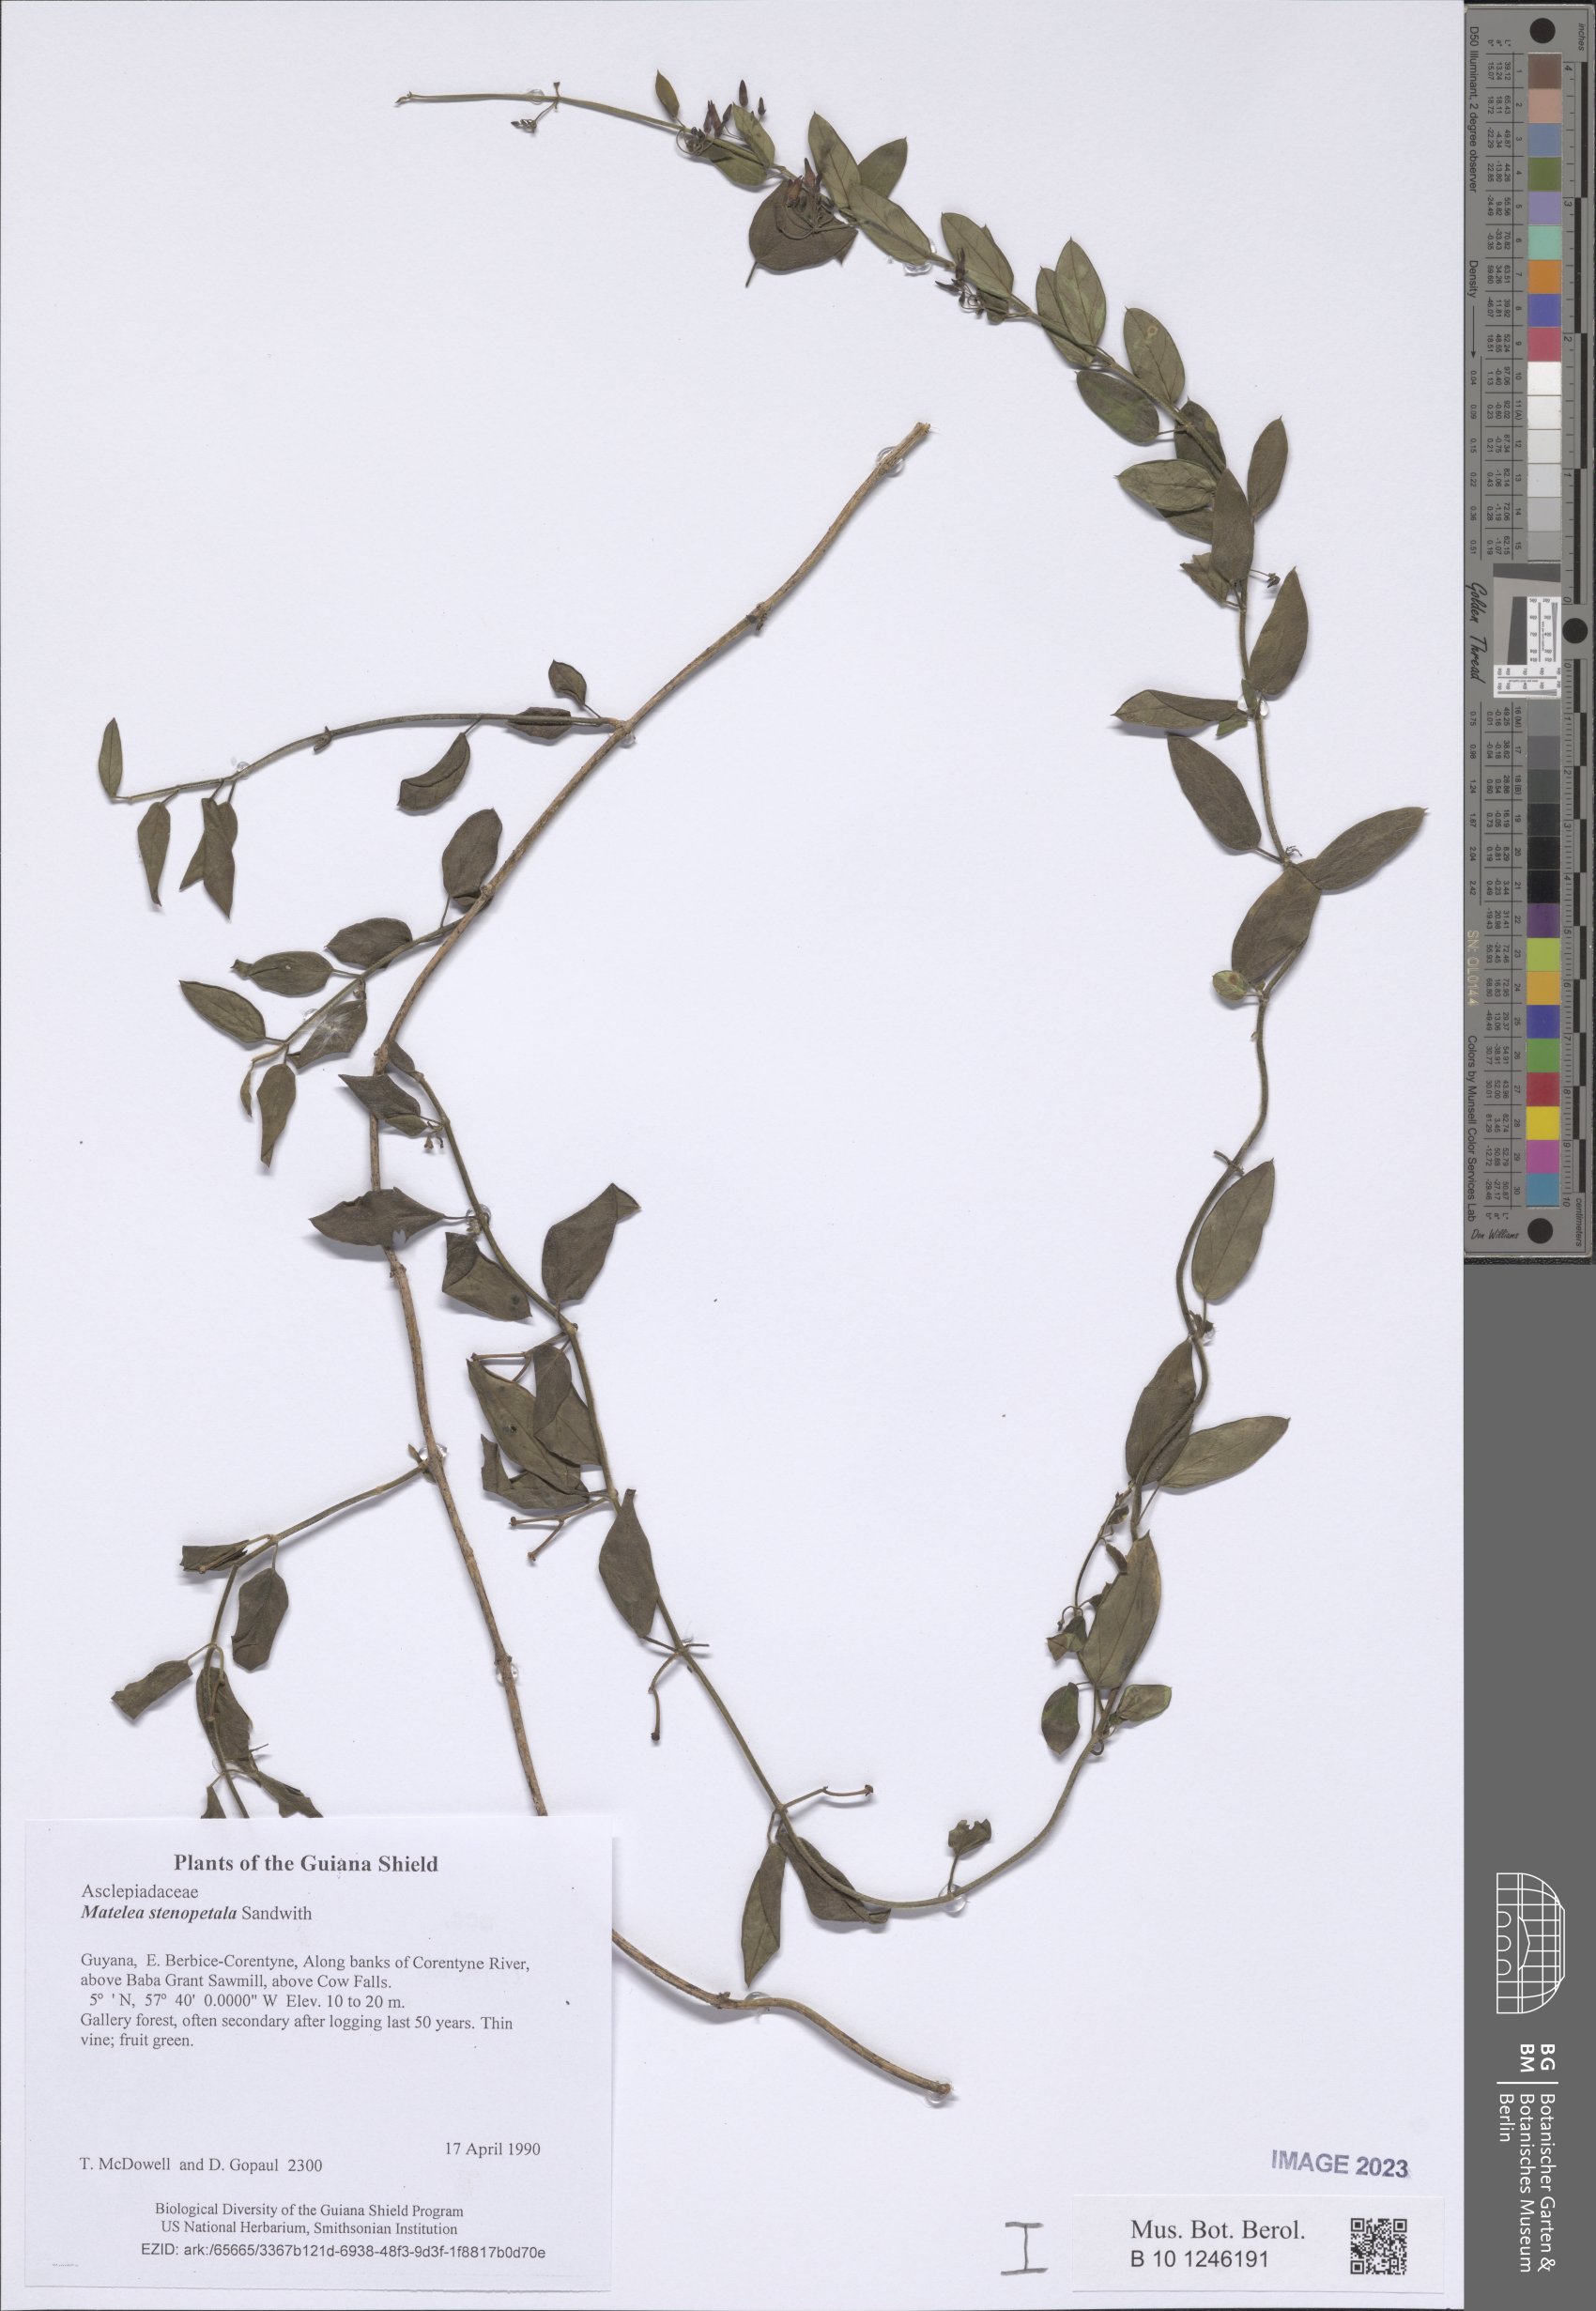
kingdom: Plantae
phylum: Tracheophyta
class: Magnoliopsida
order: Gentianales
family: Apocynaceae
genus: Matelea
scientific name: Matelea stenopetala
